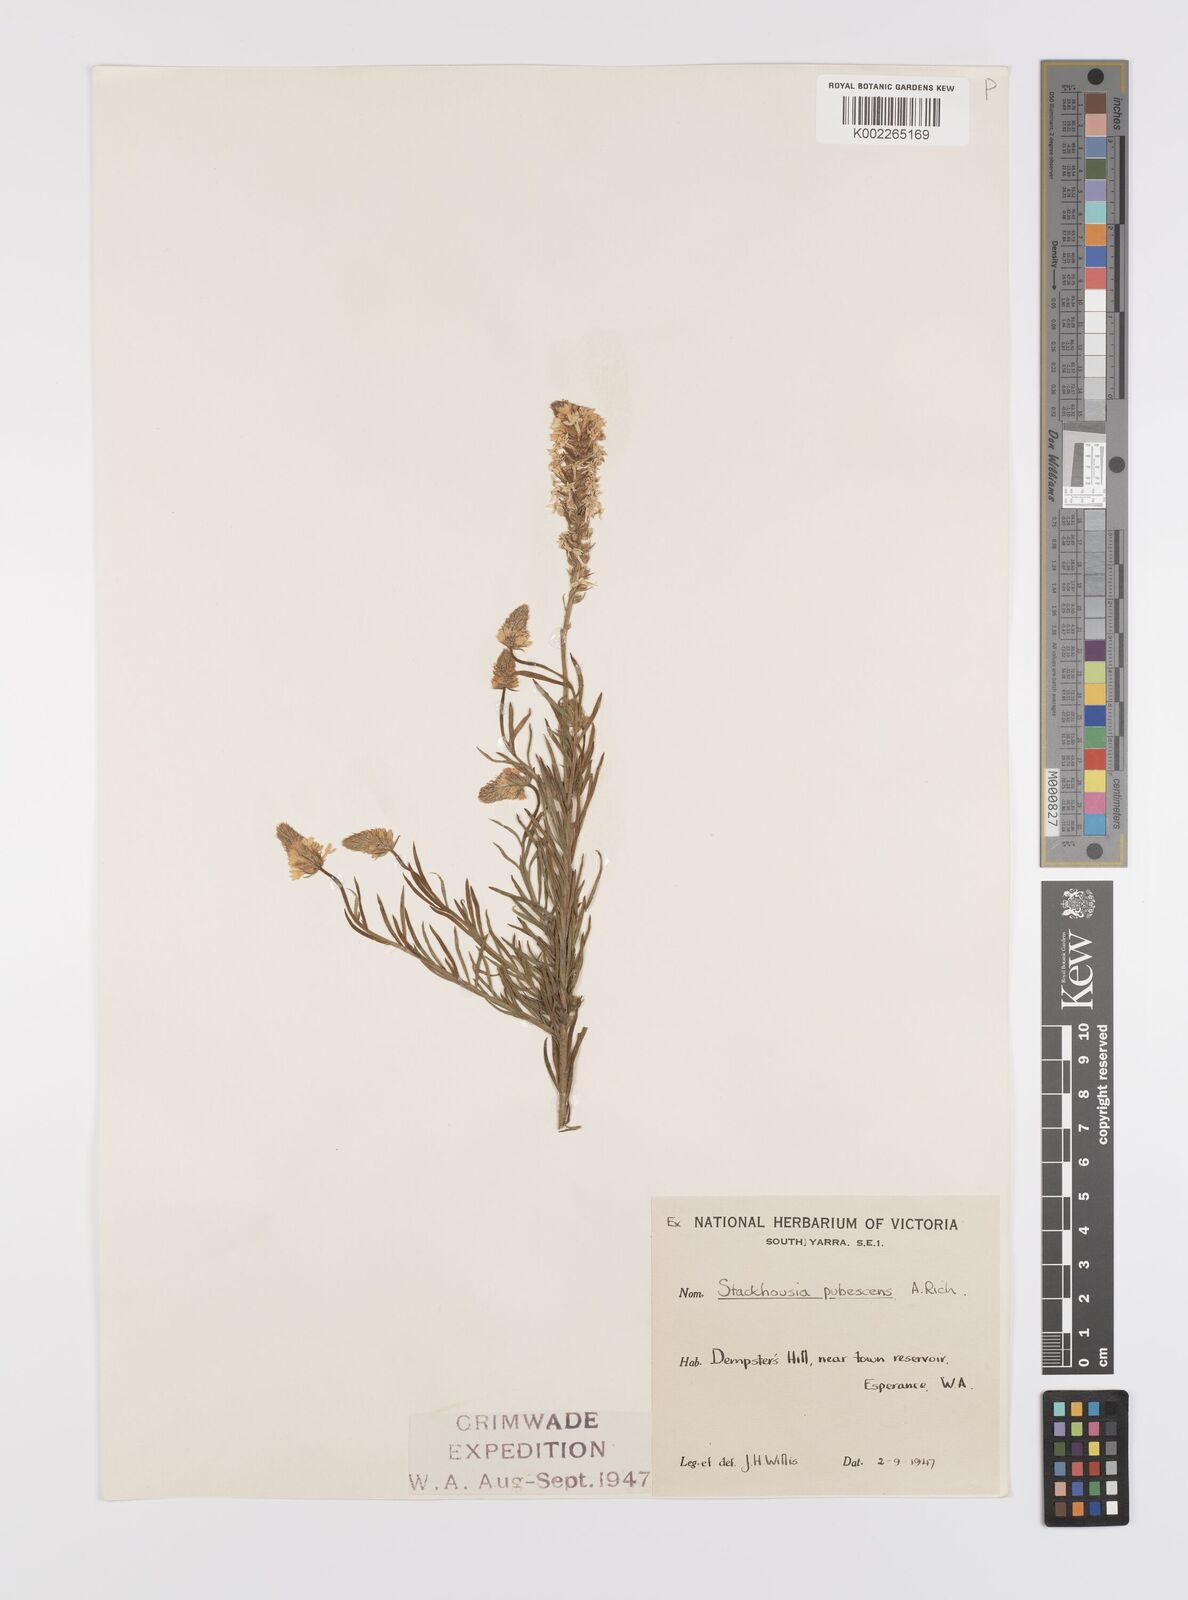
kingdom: Plantae
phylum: Tracheophyta
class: Magnoliopsida
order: Celastrales
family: Celastraceae
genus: Stackhousia
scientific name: Stackhousia monogyna
